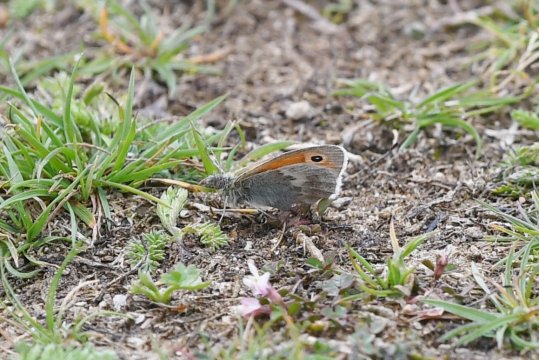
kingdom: Animalia
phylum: Arthropoda
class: Insecta
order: Lepidoptera
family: Nymphalidae
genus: Coenonympha
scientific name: Coenonympha pamphilus
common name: Small Heath
